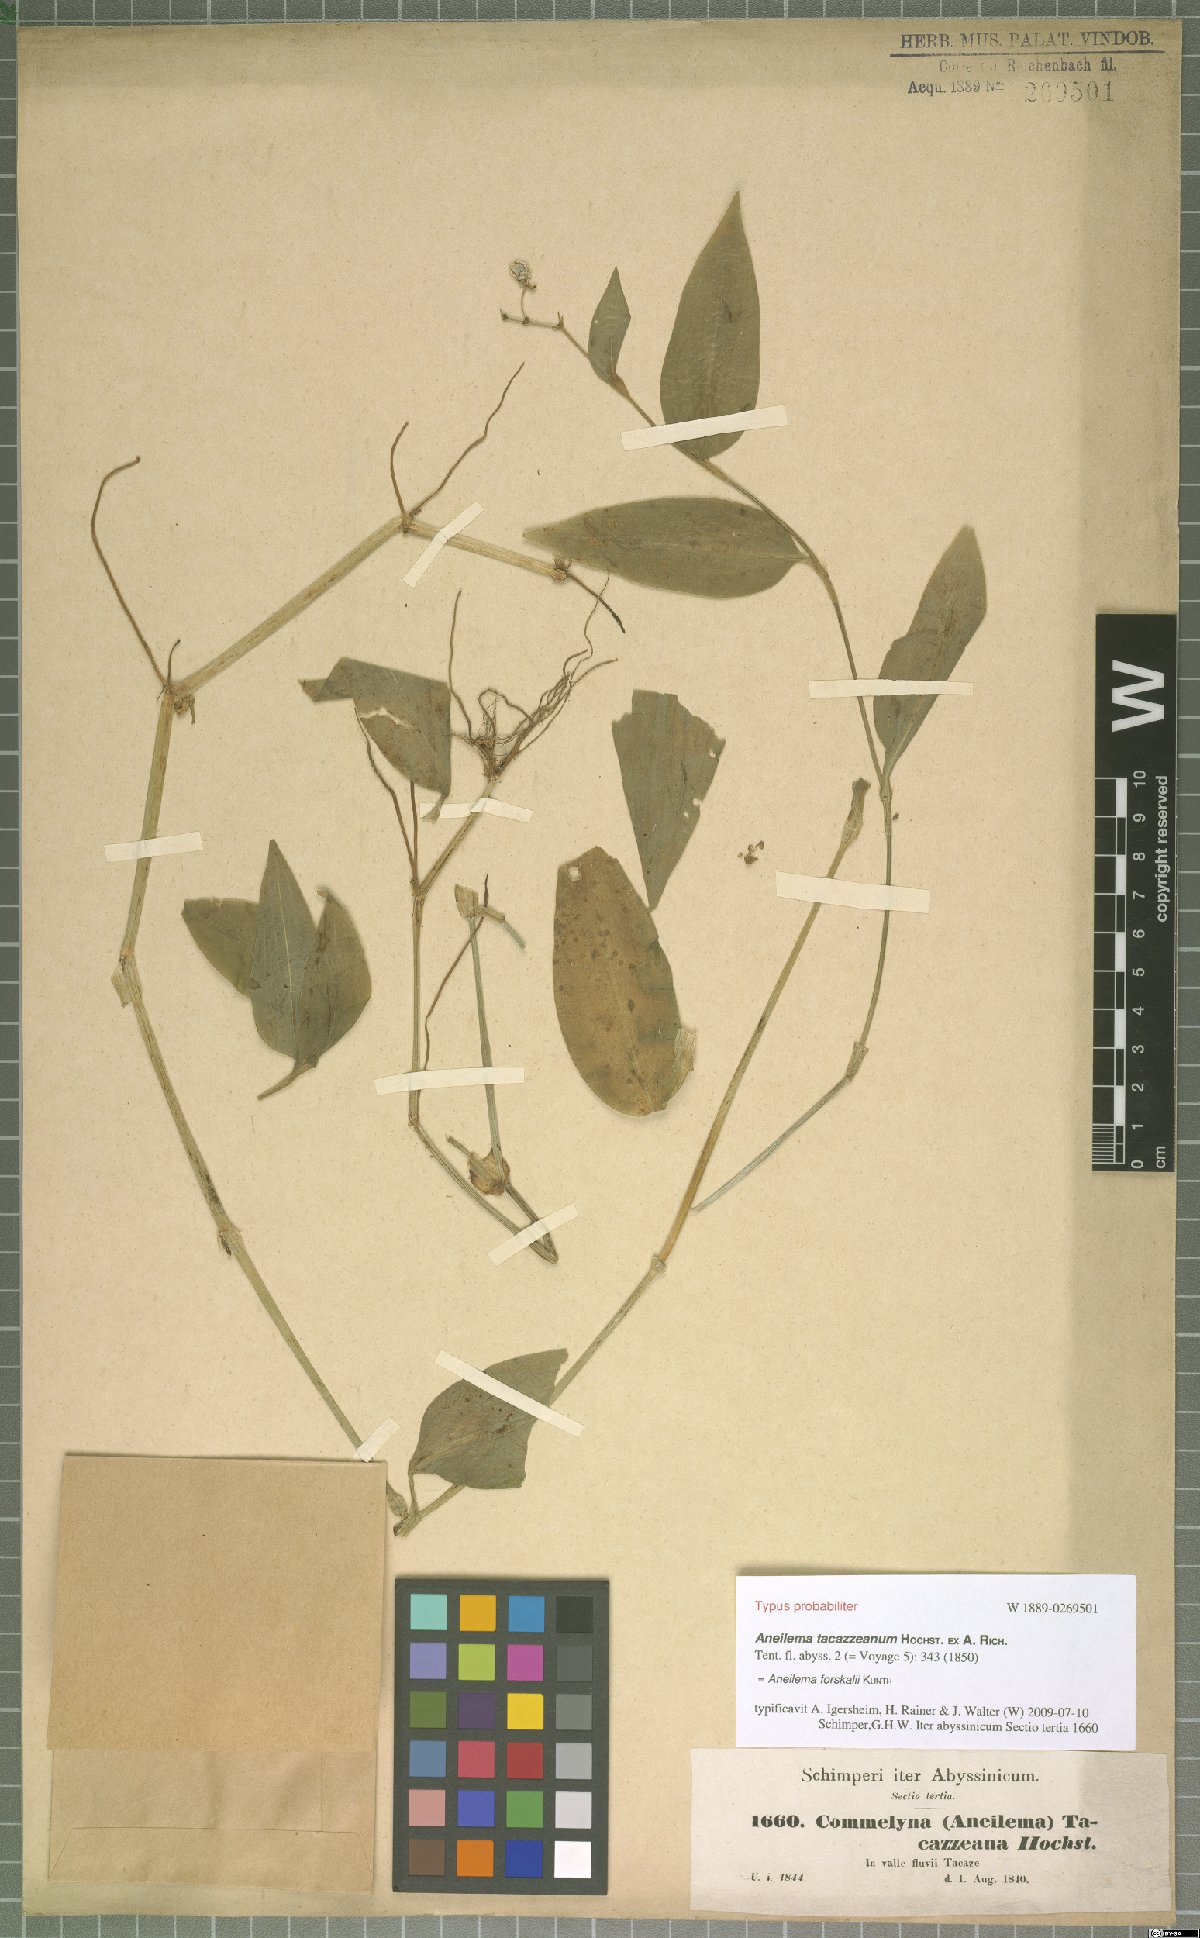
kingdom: Plantae
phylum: Tracheophyta
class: Liliopsida
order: Commelinales
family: Commelinaceae
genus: Aneilema
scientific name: Aneilema forskalii
